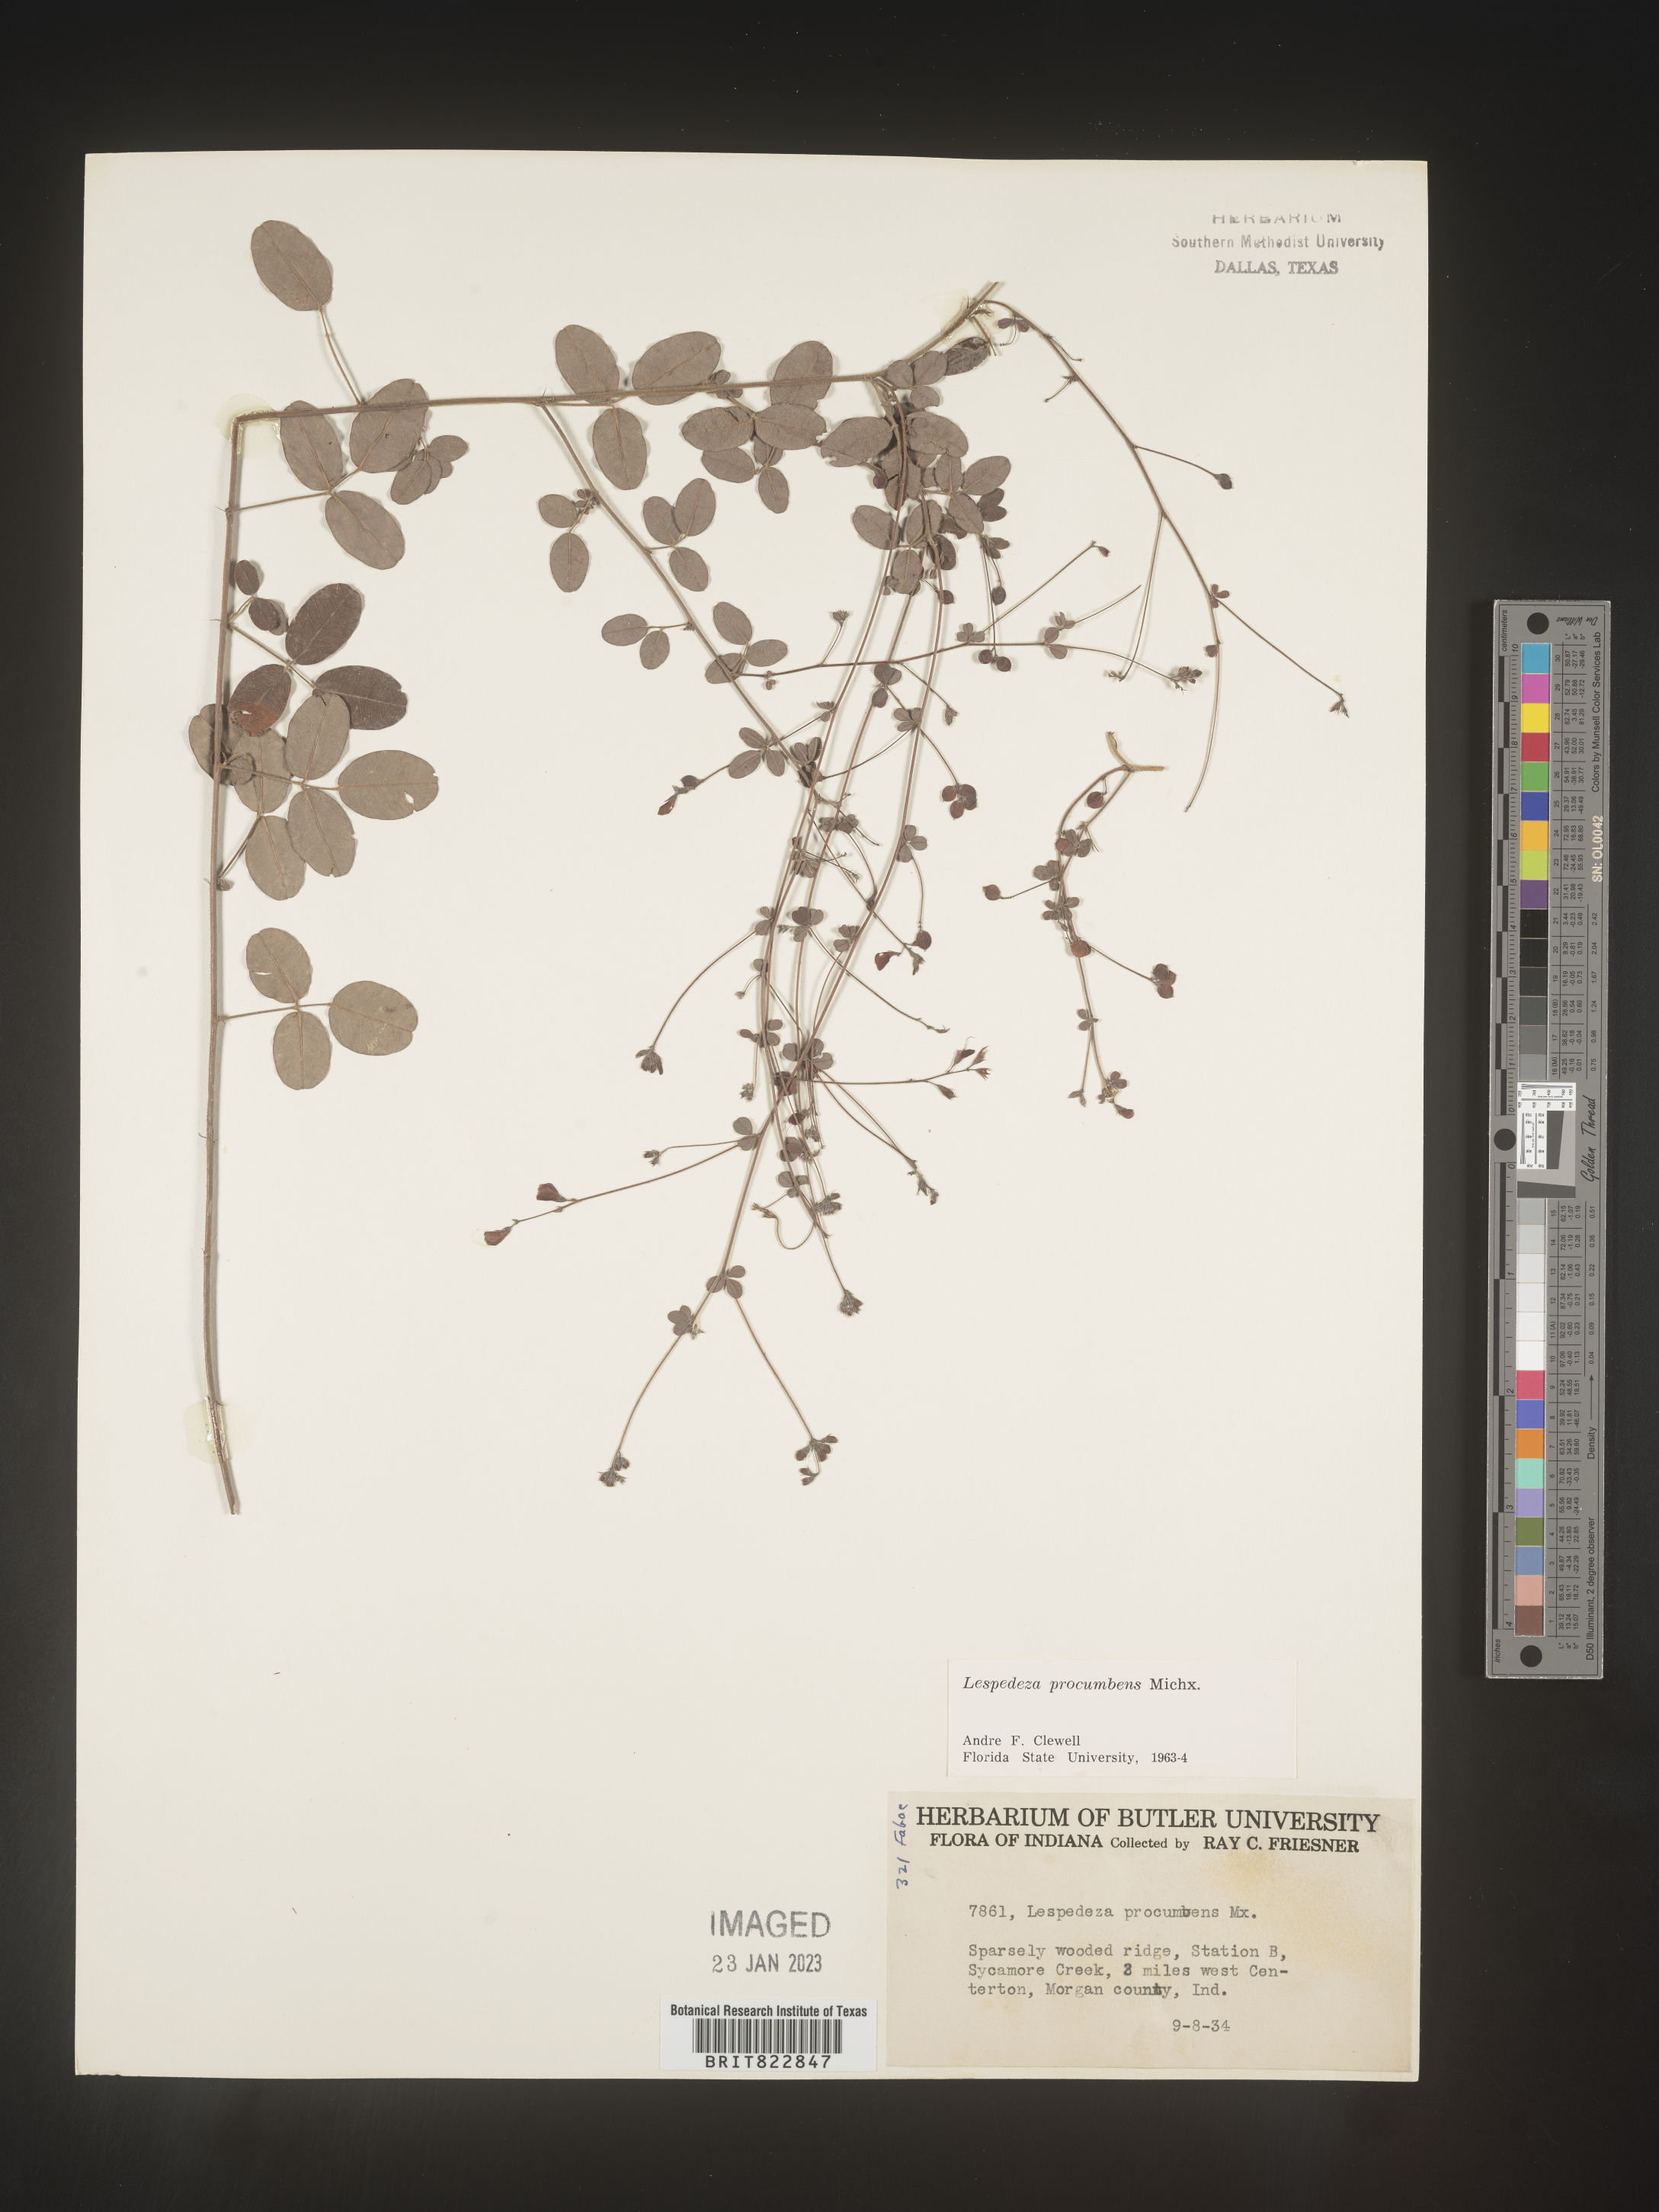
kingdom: Plantae
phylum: Tracheophyta
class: Magnoliopsida
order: Fabales
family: Fabaceae
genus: Lespedeza
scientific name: Lespedeza procumbens
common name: Downy trailing bush-clover
